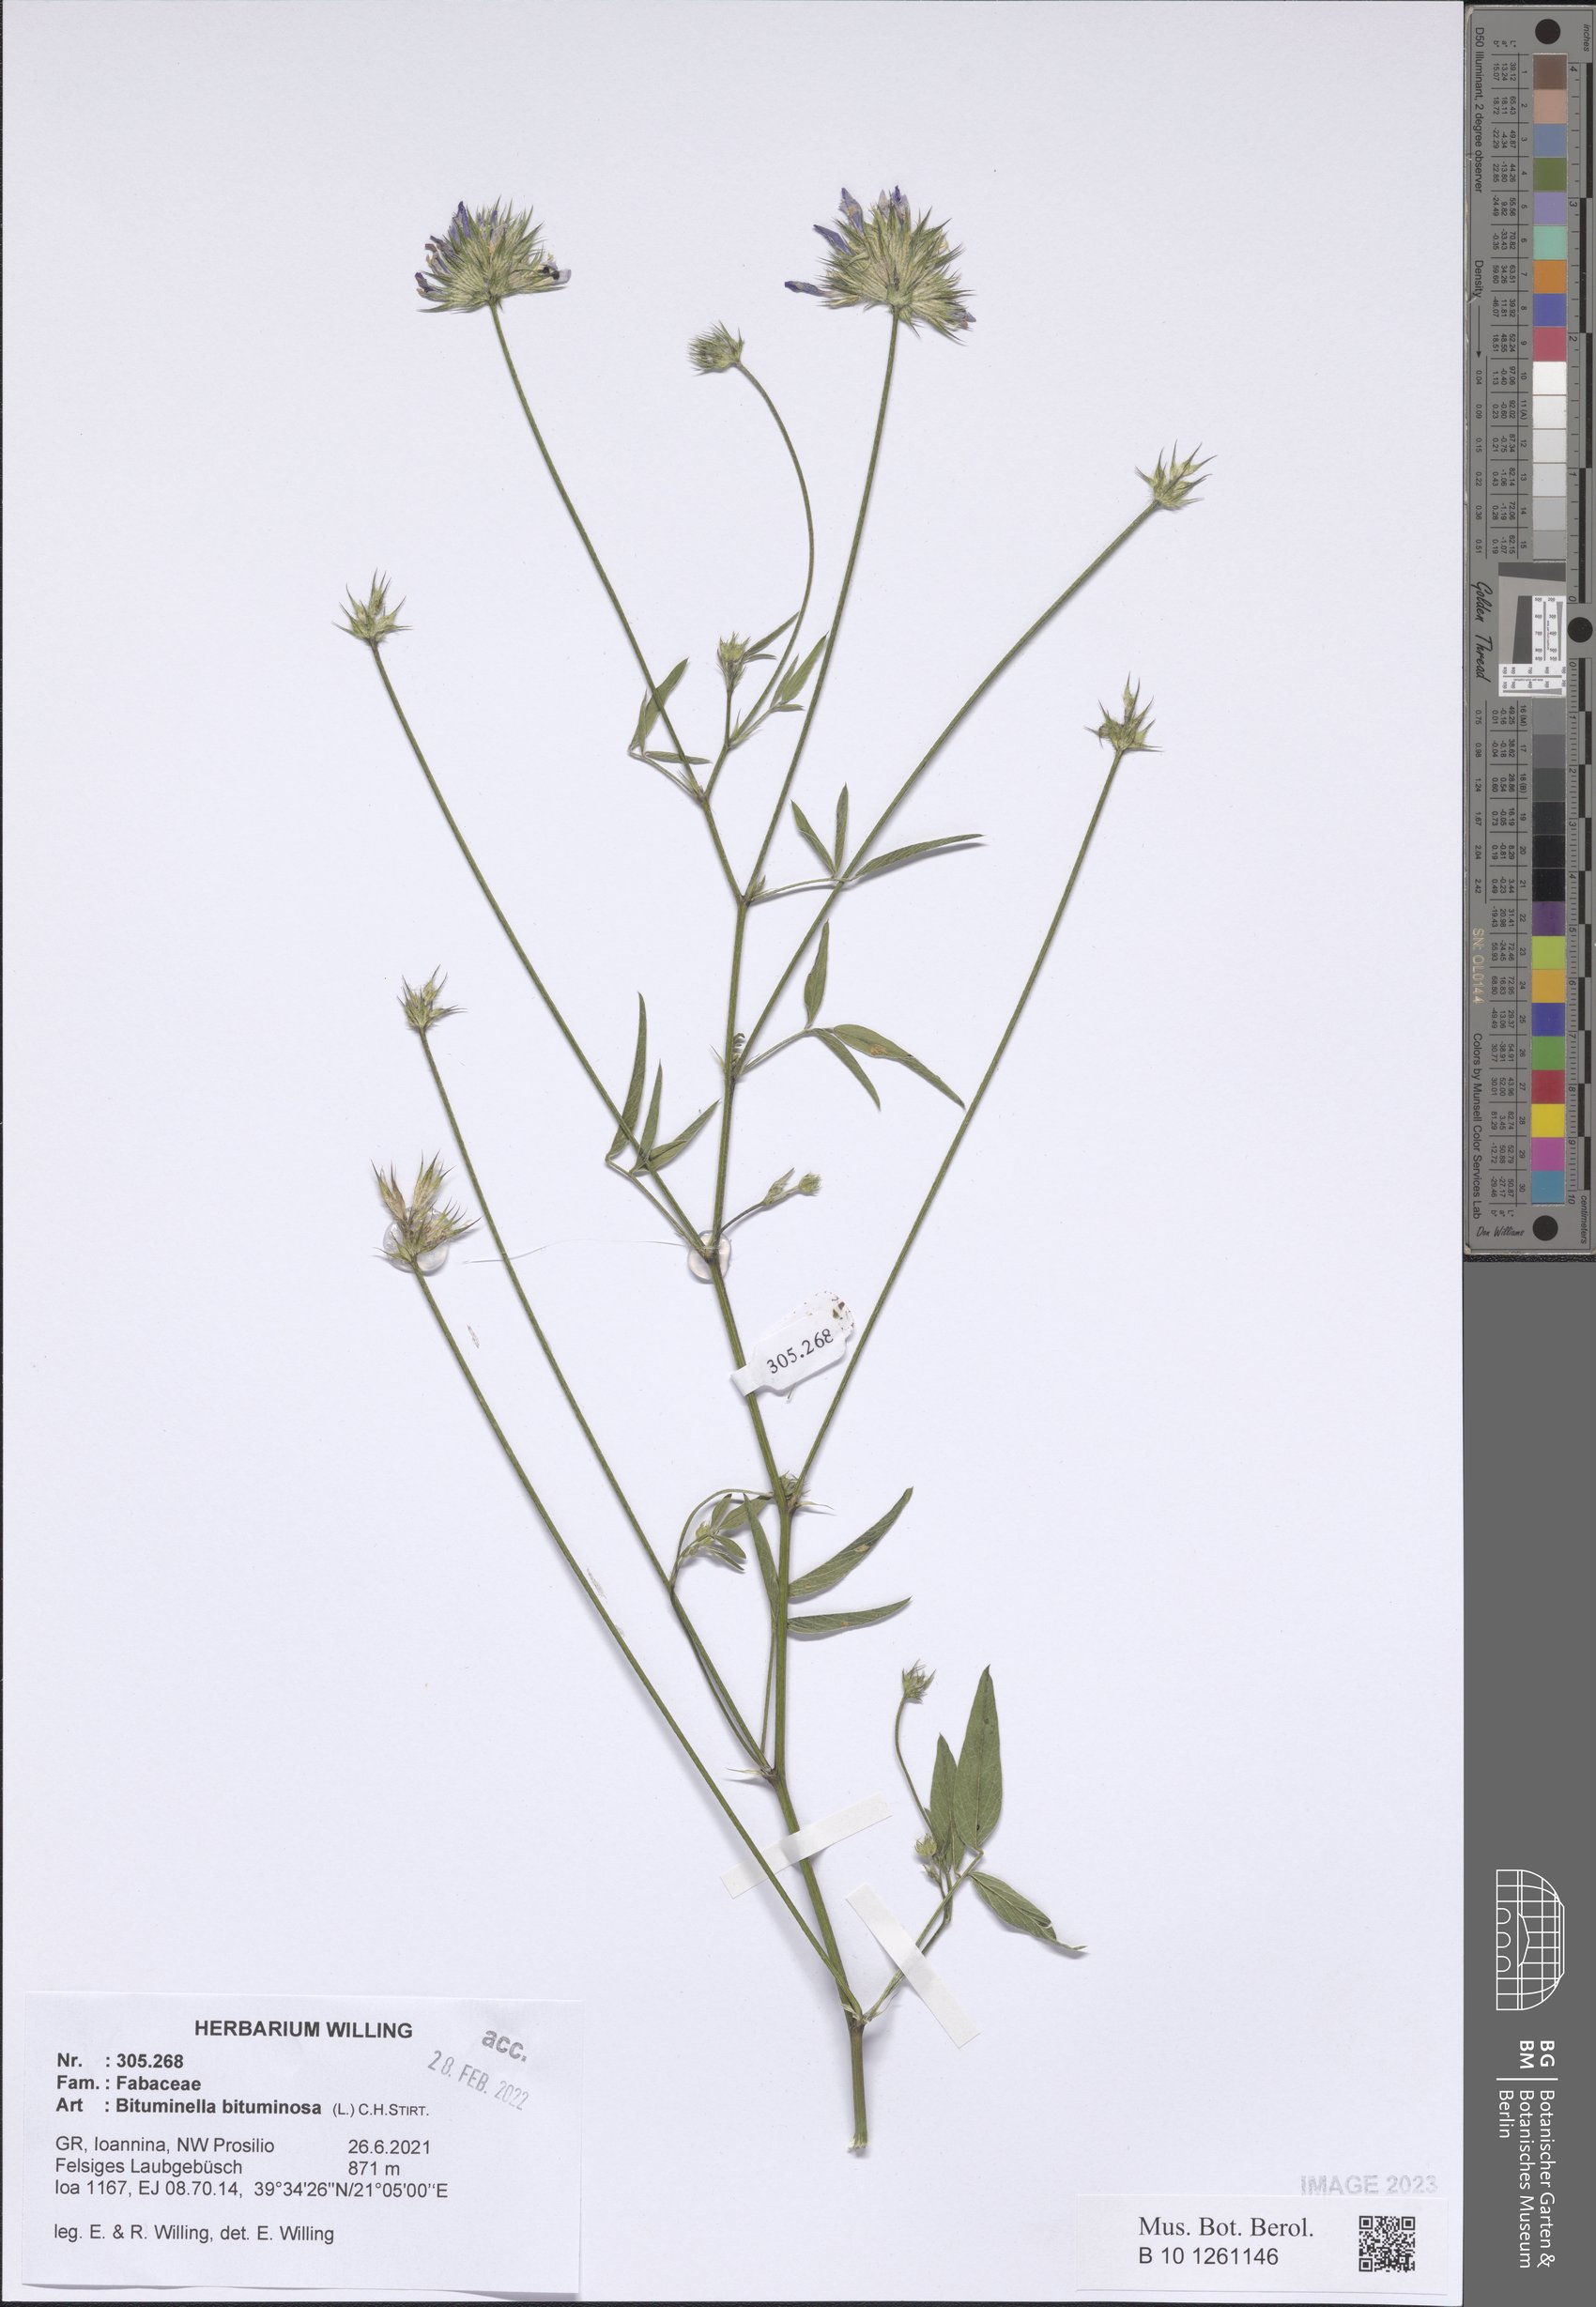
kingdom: Plantae
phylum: Tracheophyta
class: Magnoliopsida
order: Fabales
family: Fabaceae
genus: Bituminaria
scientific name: Bituminaria bituminosa
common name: Arabian pea
